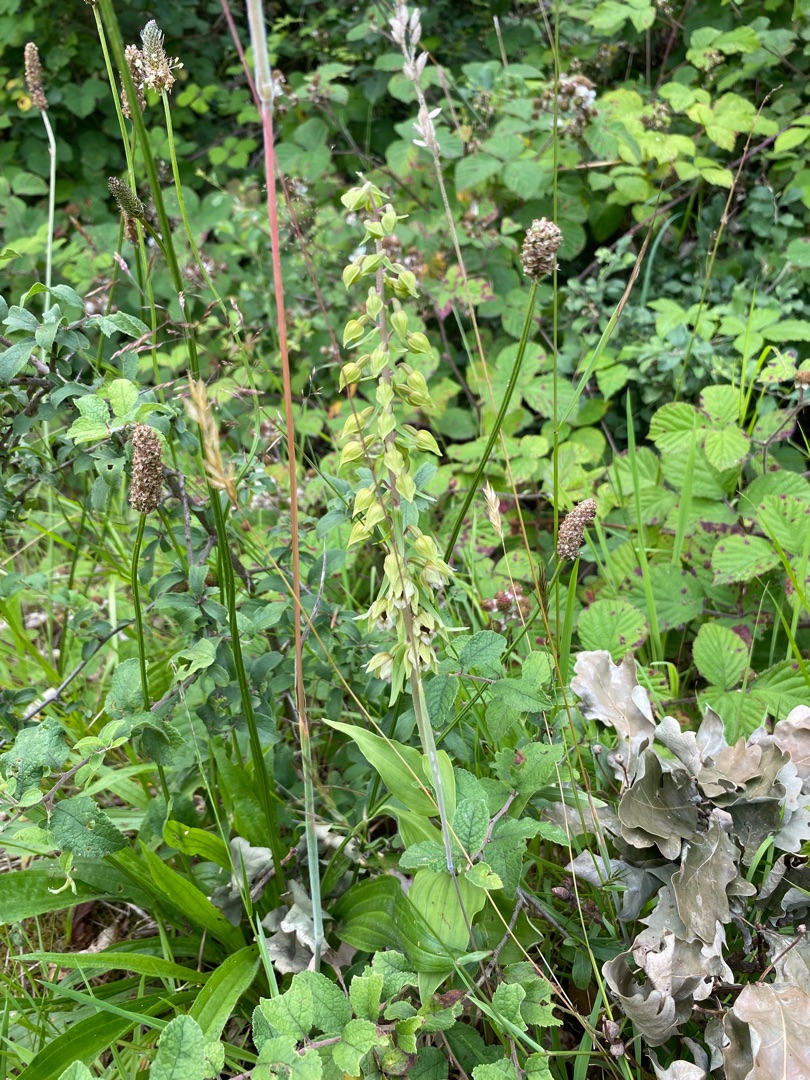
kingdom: Plantae
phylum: Tracheophyta
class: Liliopsida
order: Asparagales
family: Orchidaceae
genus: Epipactis
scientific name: Epipactis helleborine
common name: Skov-hullæbe
